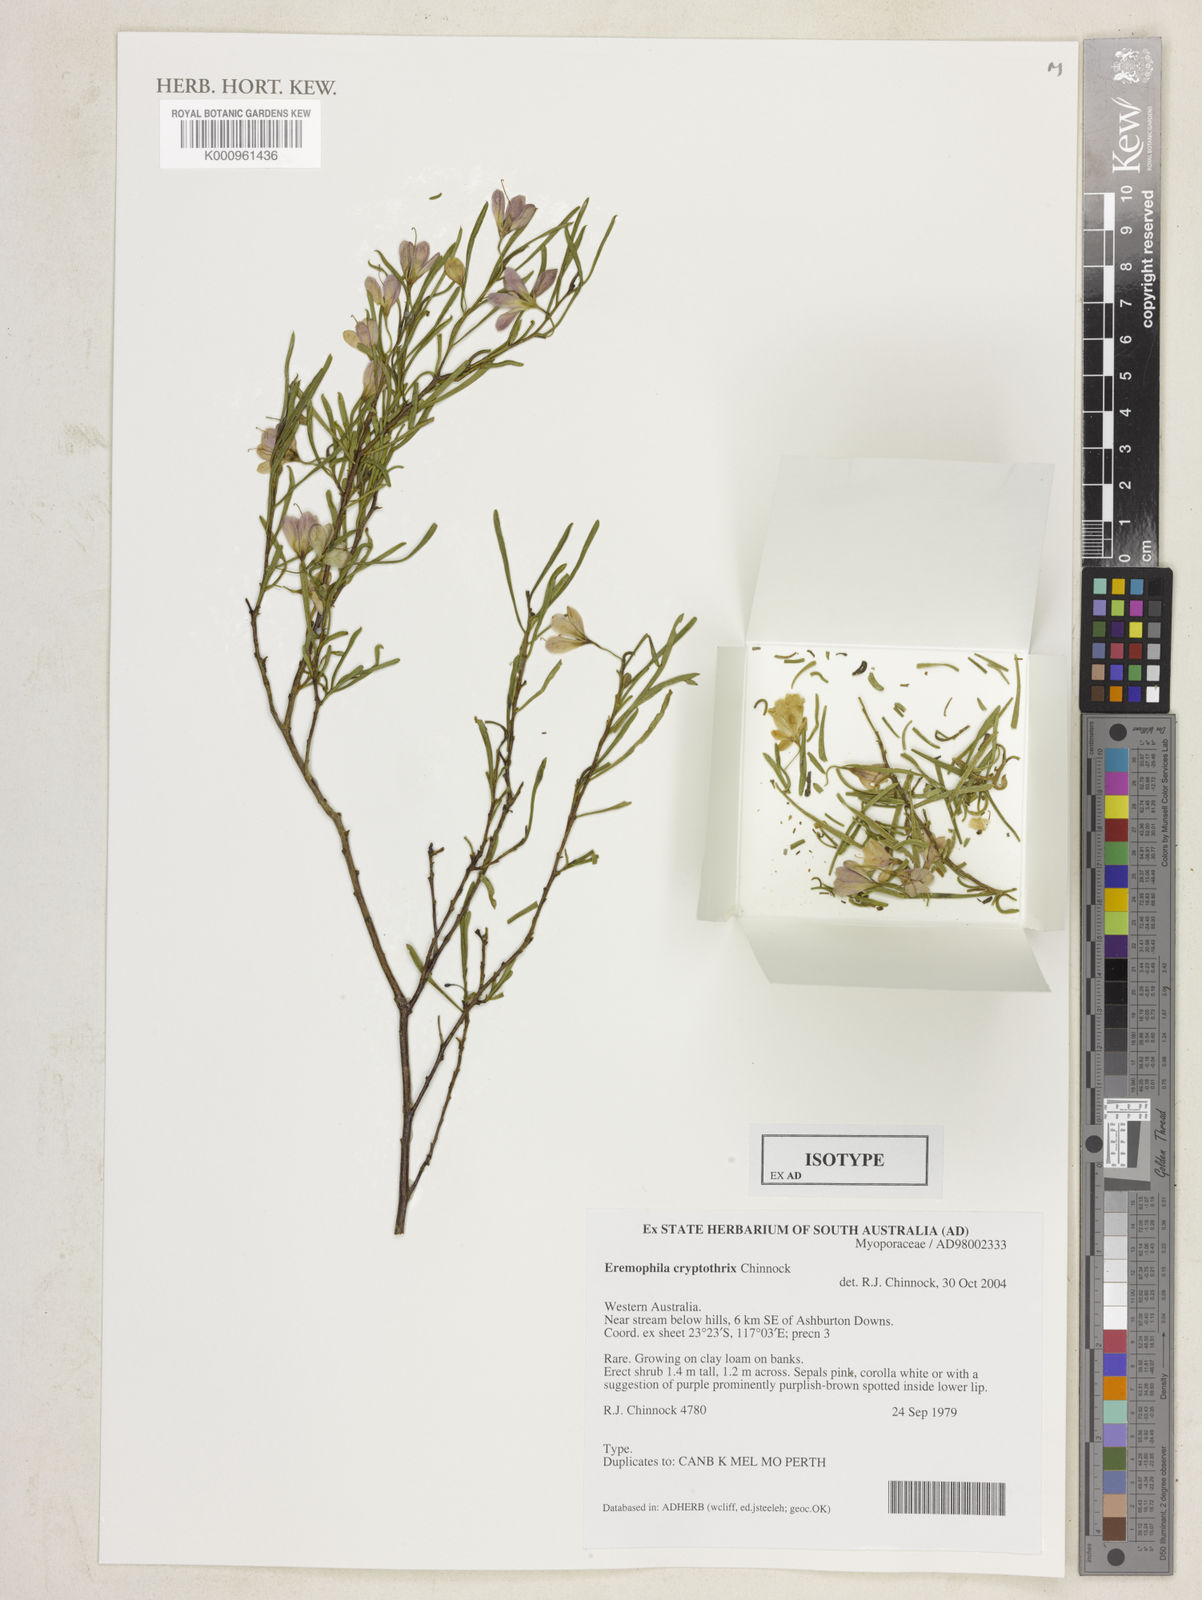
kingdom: Plantae
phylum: Tracheophyta
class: Magnoliopsida
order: Lamiales
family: Scrophulariaceae
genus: Eremophila
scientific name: Eremophila cryptothrix
